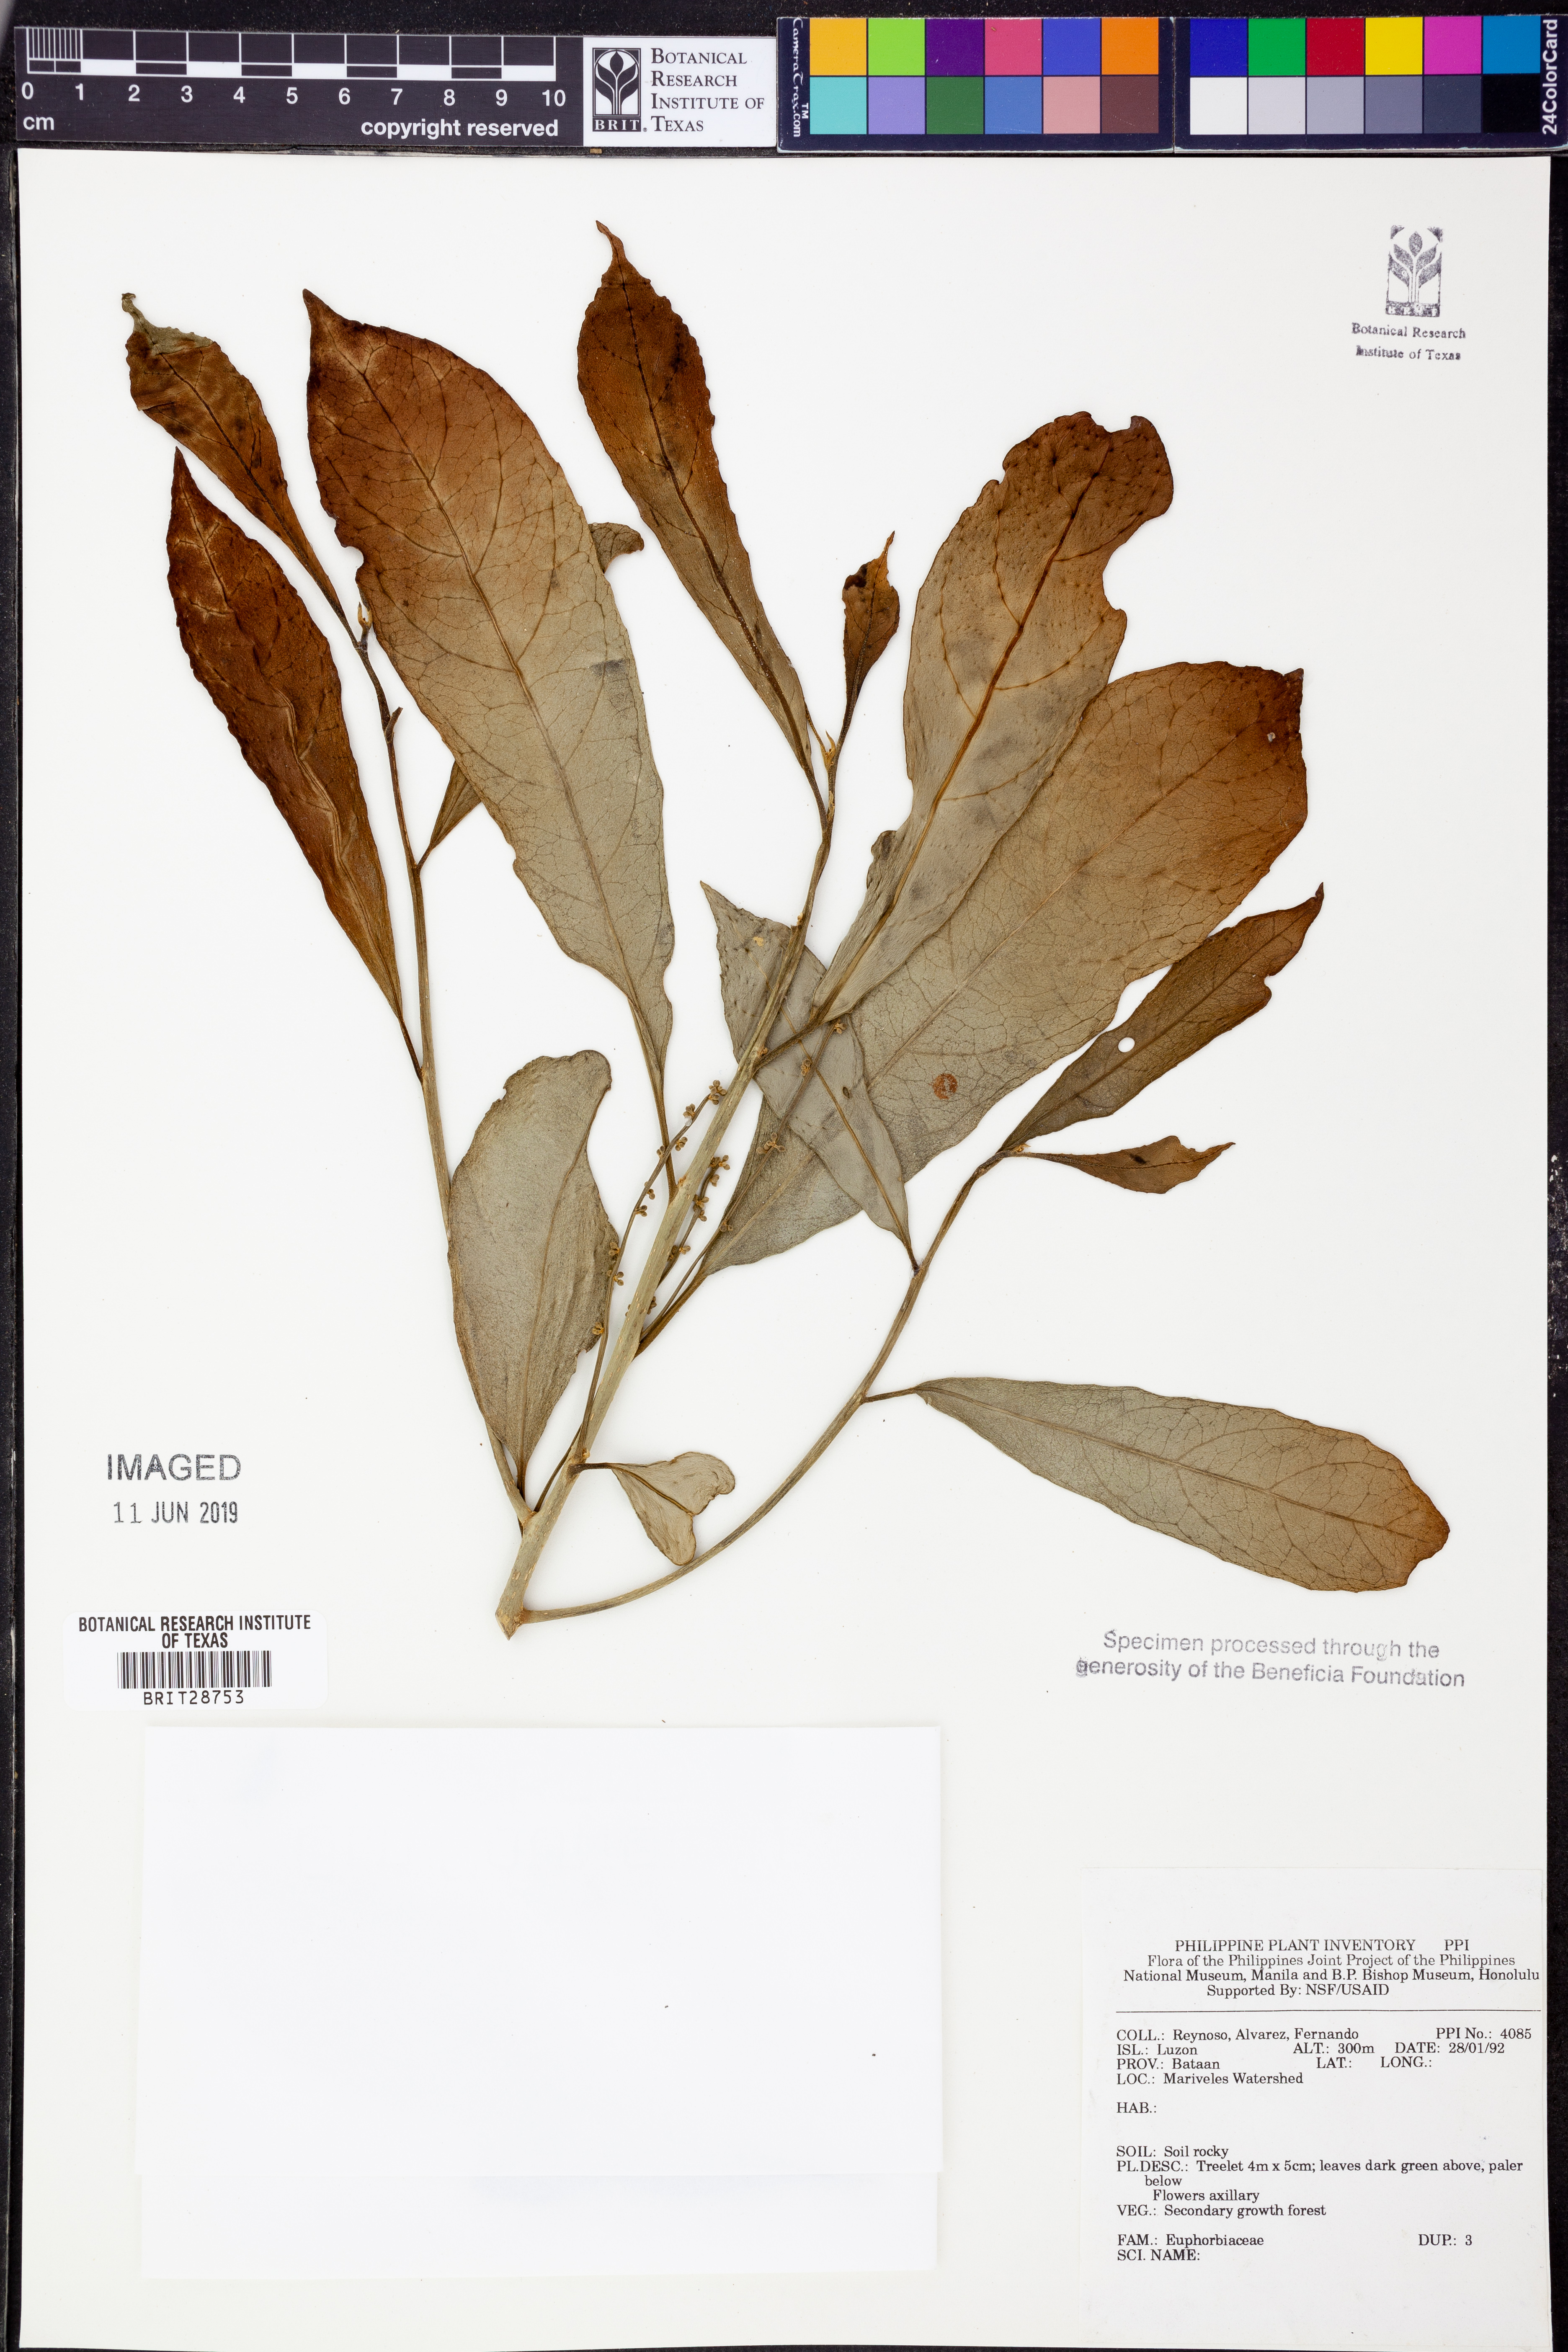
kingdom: Plantae
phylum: Tracheophyta
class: Magnoliopsida
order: Malpighiales
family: Euphorbiaceae
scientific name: Euphorbiaceae
